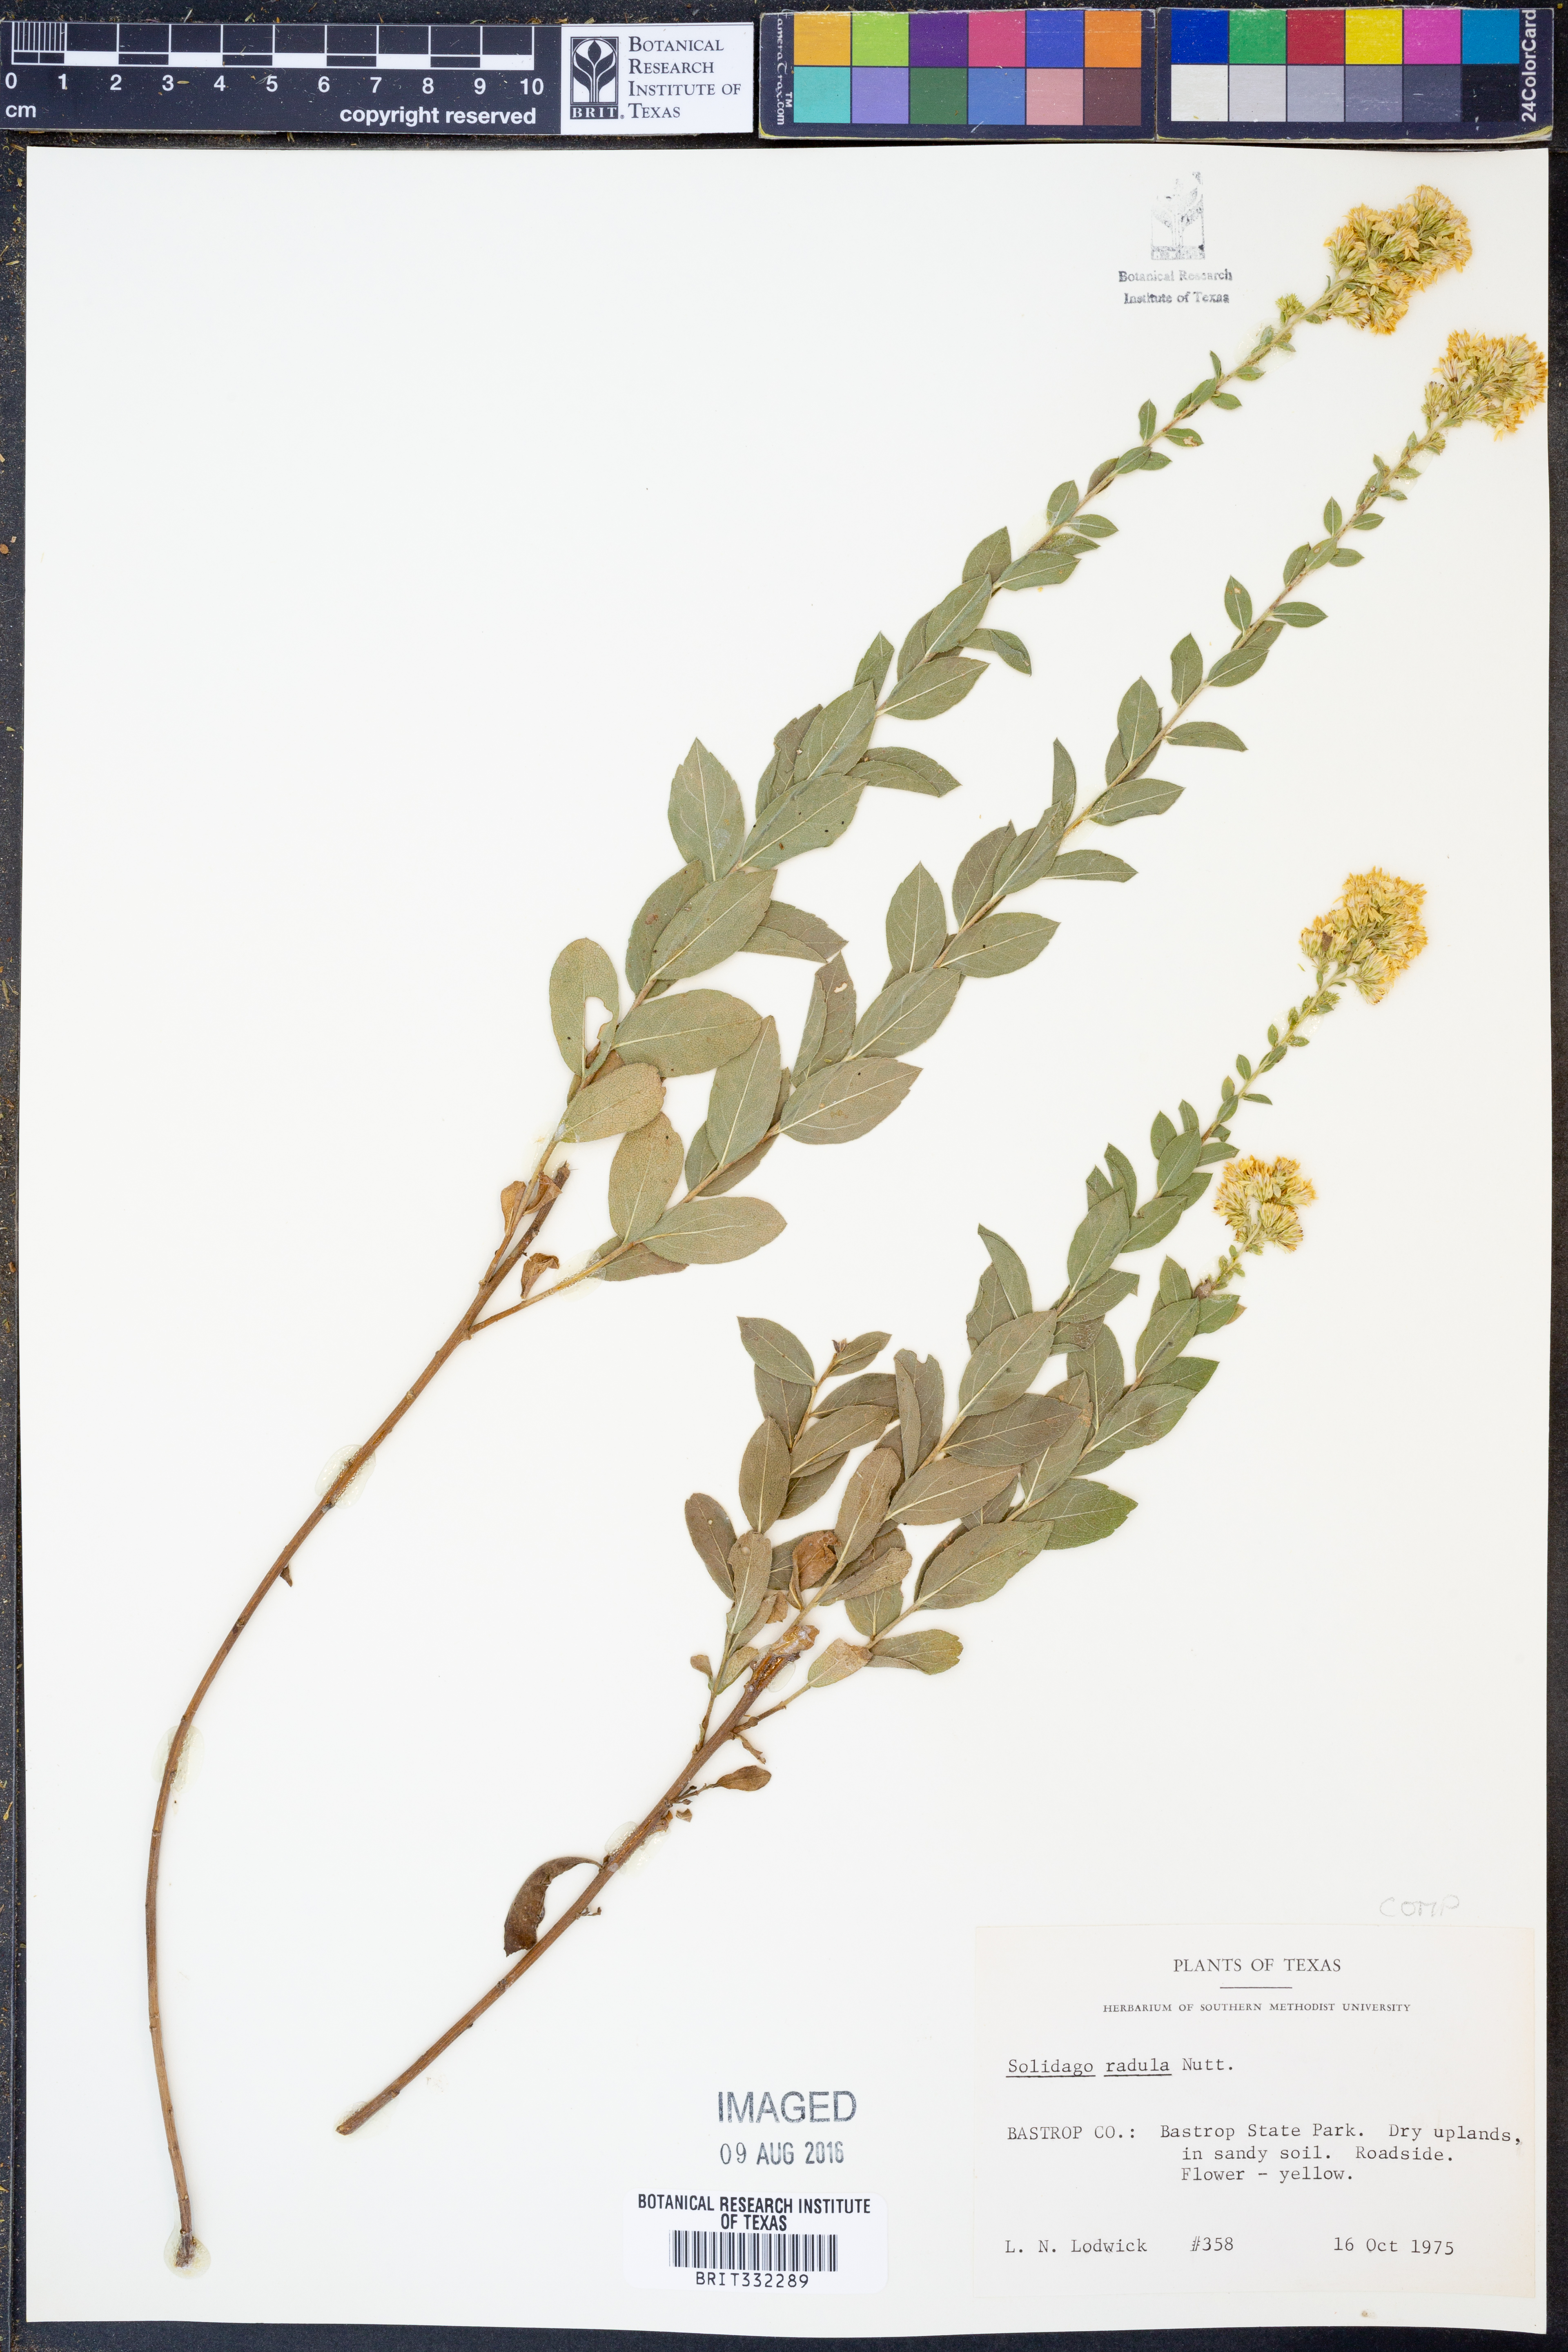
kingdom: Plantae
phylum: Tracheophyta
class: Magnoliopsida
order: Asterales
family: Asteraceae
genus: Solidago
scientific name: Solidago radula
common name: Western rough goldenrod
